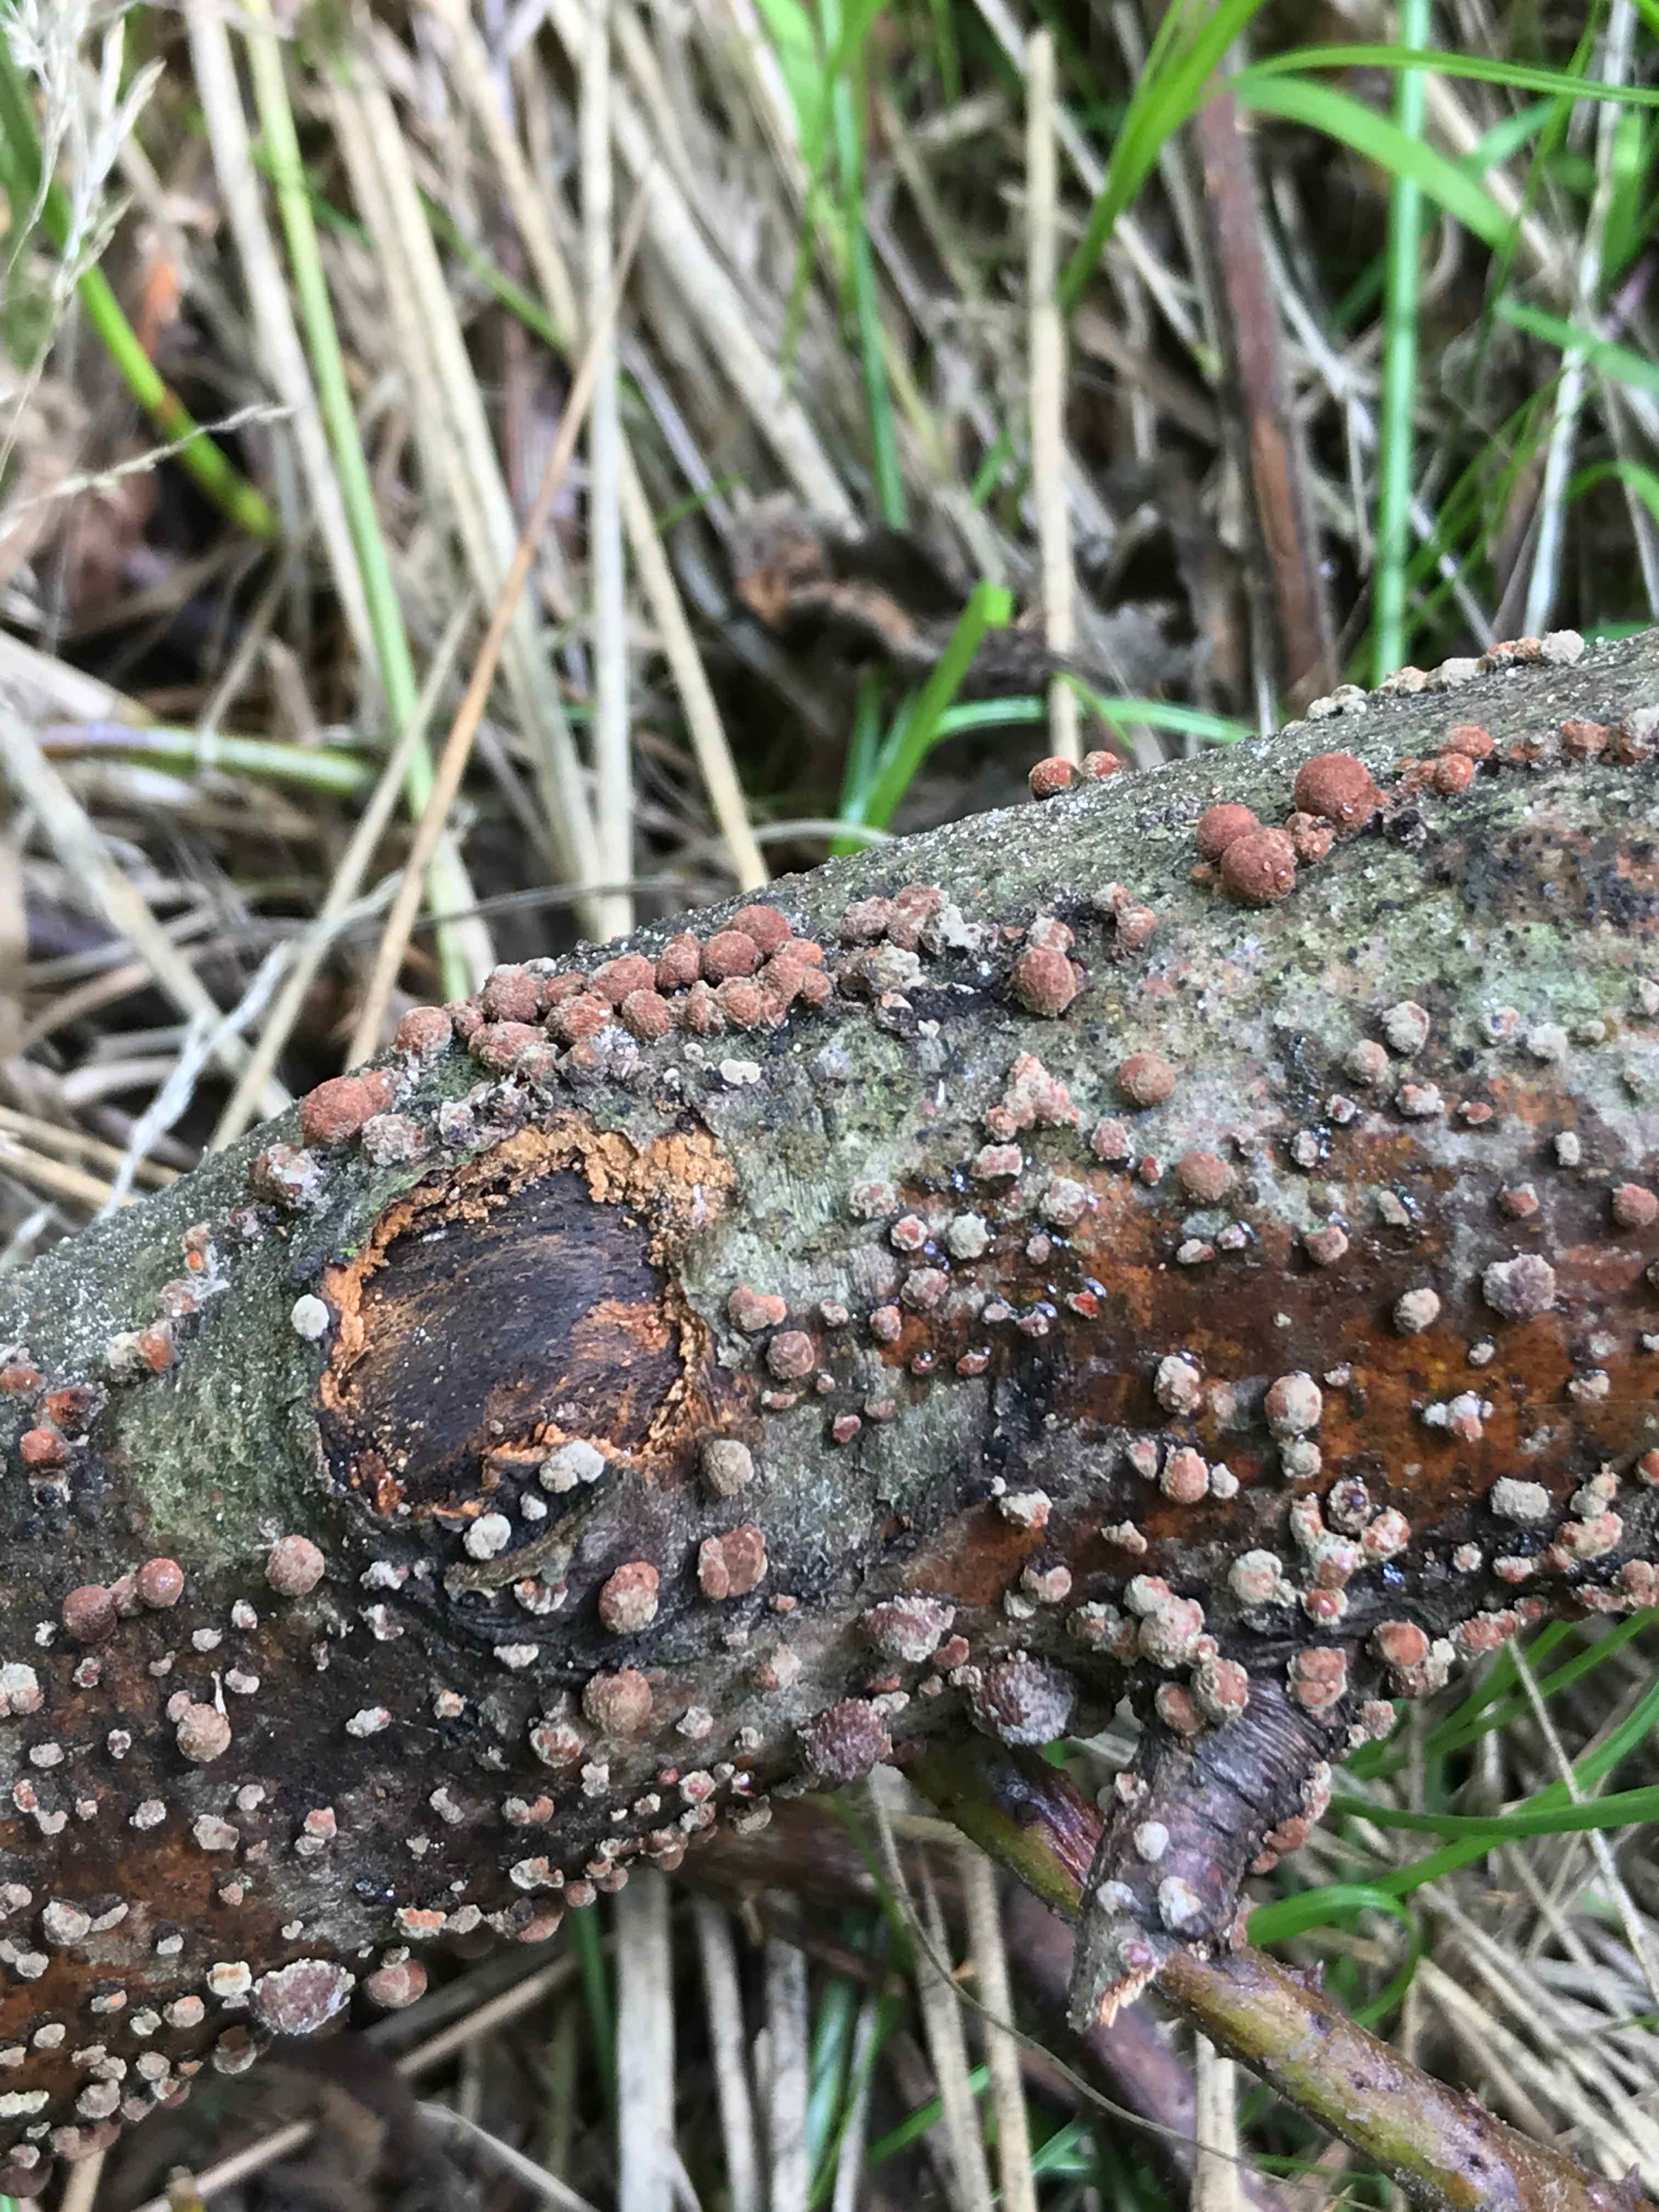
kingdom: Fungi
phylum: Ascomycota
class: Sordariomycetes
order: Xylariales
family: Hypoxylaceae
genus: Hypoxylon
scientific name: Hypoxylon fragiforme
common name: kuljordbær
